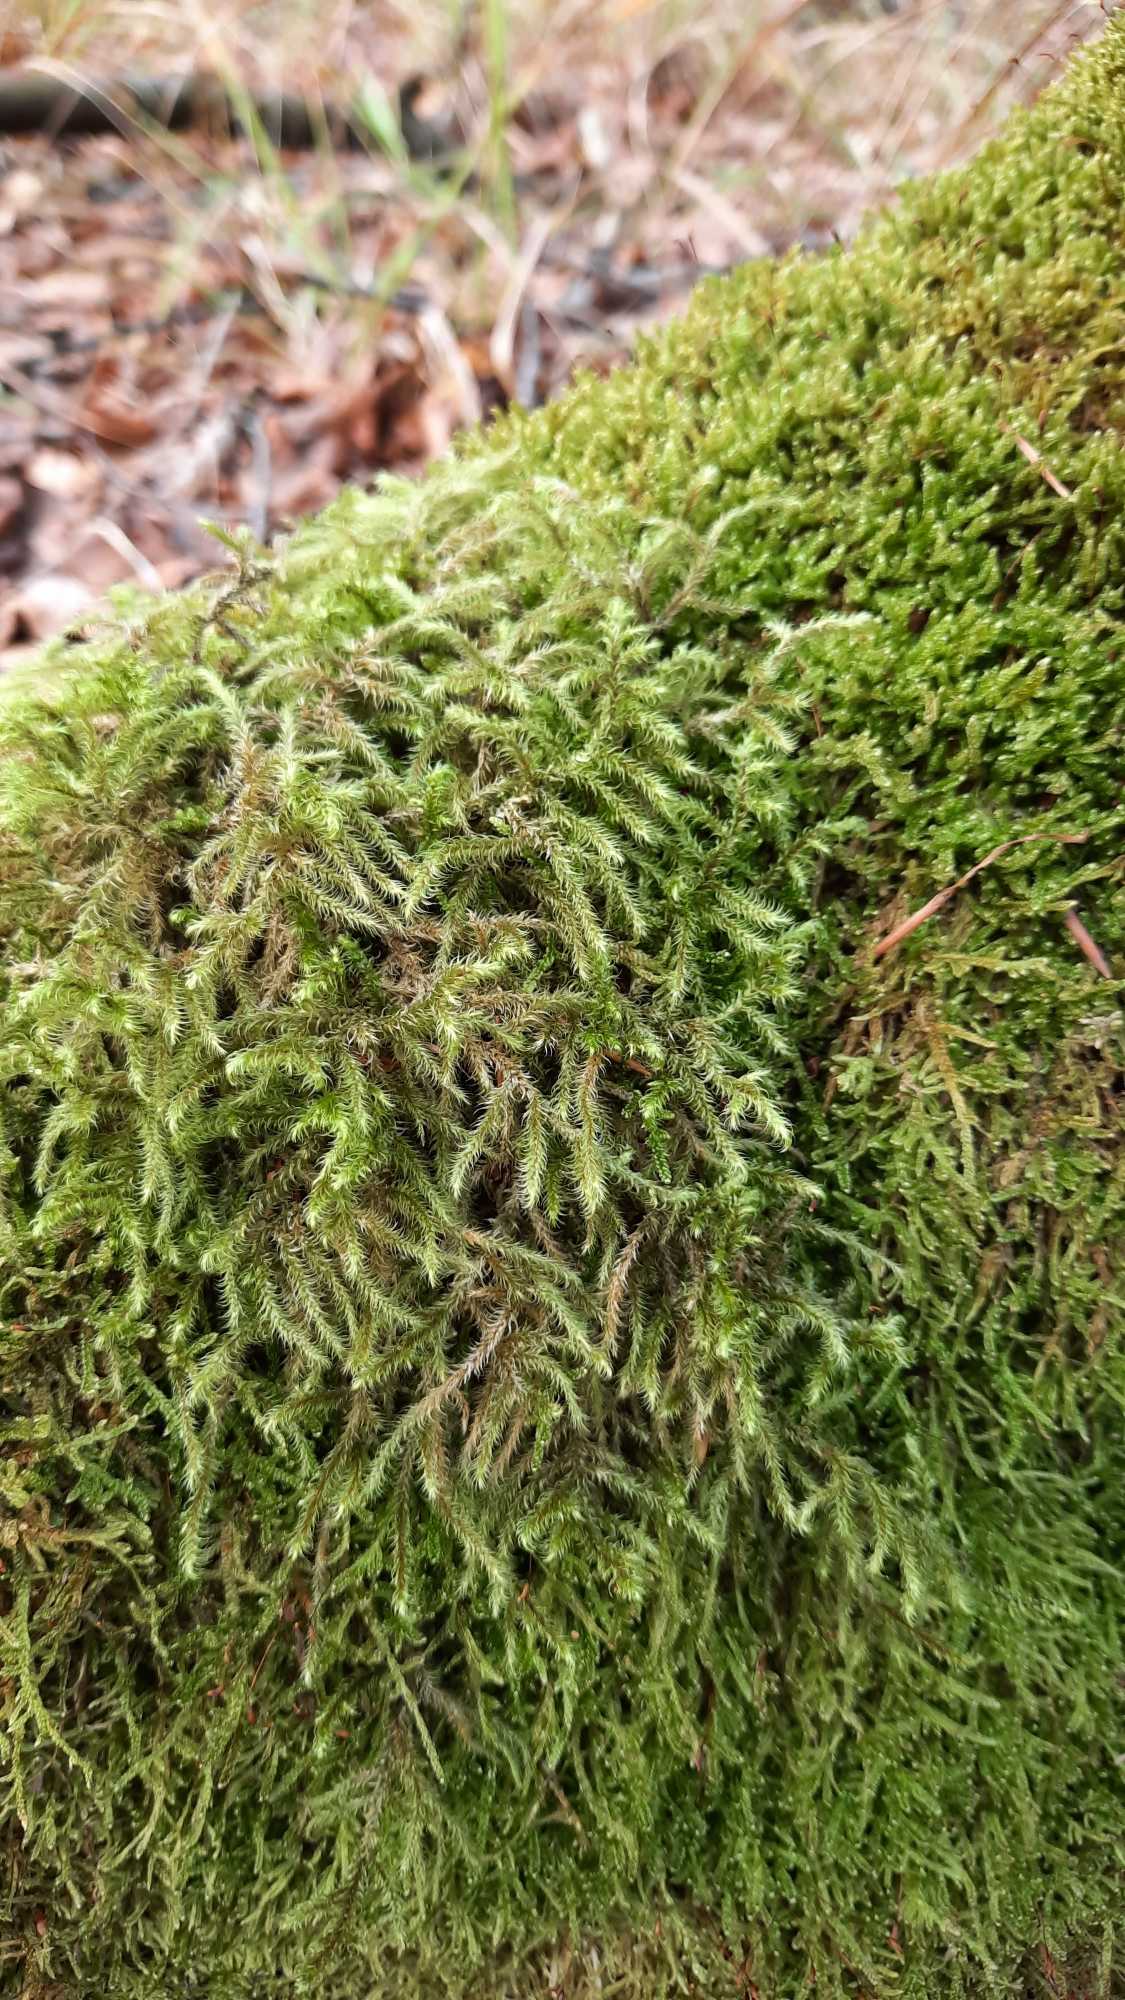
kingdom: Plantae
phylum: Bryophyta
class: Bryopsida
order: Hypnales
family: Hylocomiaceae
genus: Rhytidiadelphus
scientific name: Rhytidiadelphus loreus
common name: Ulvefod-kransemos
